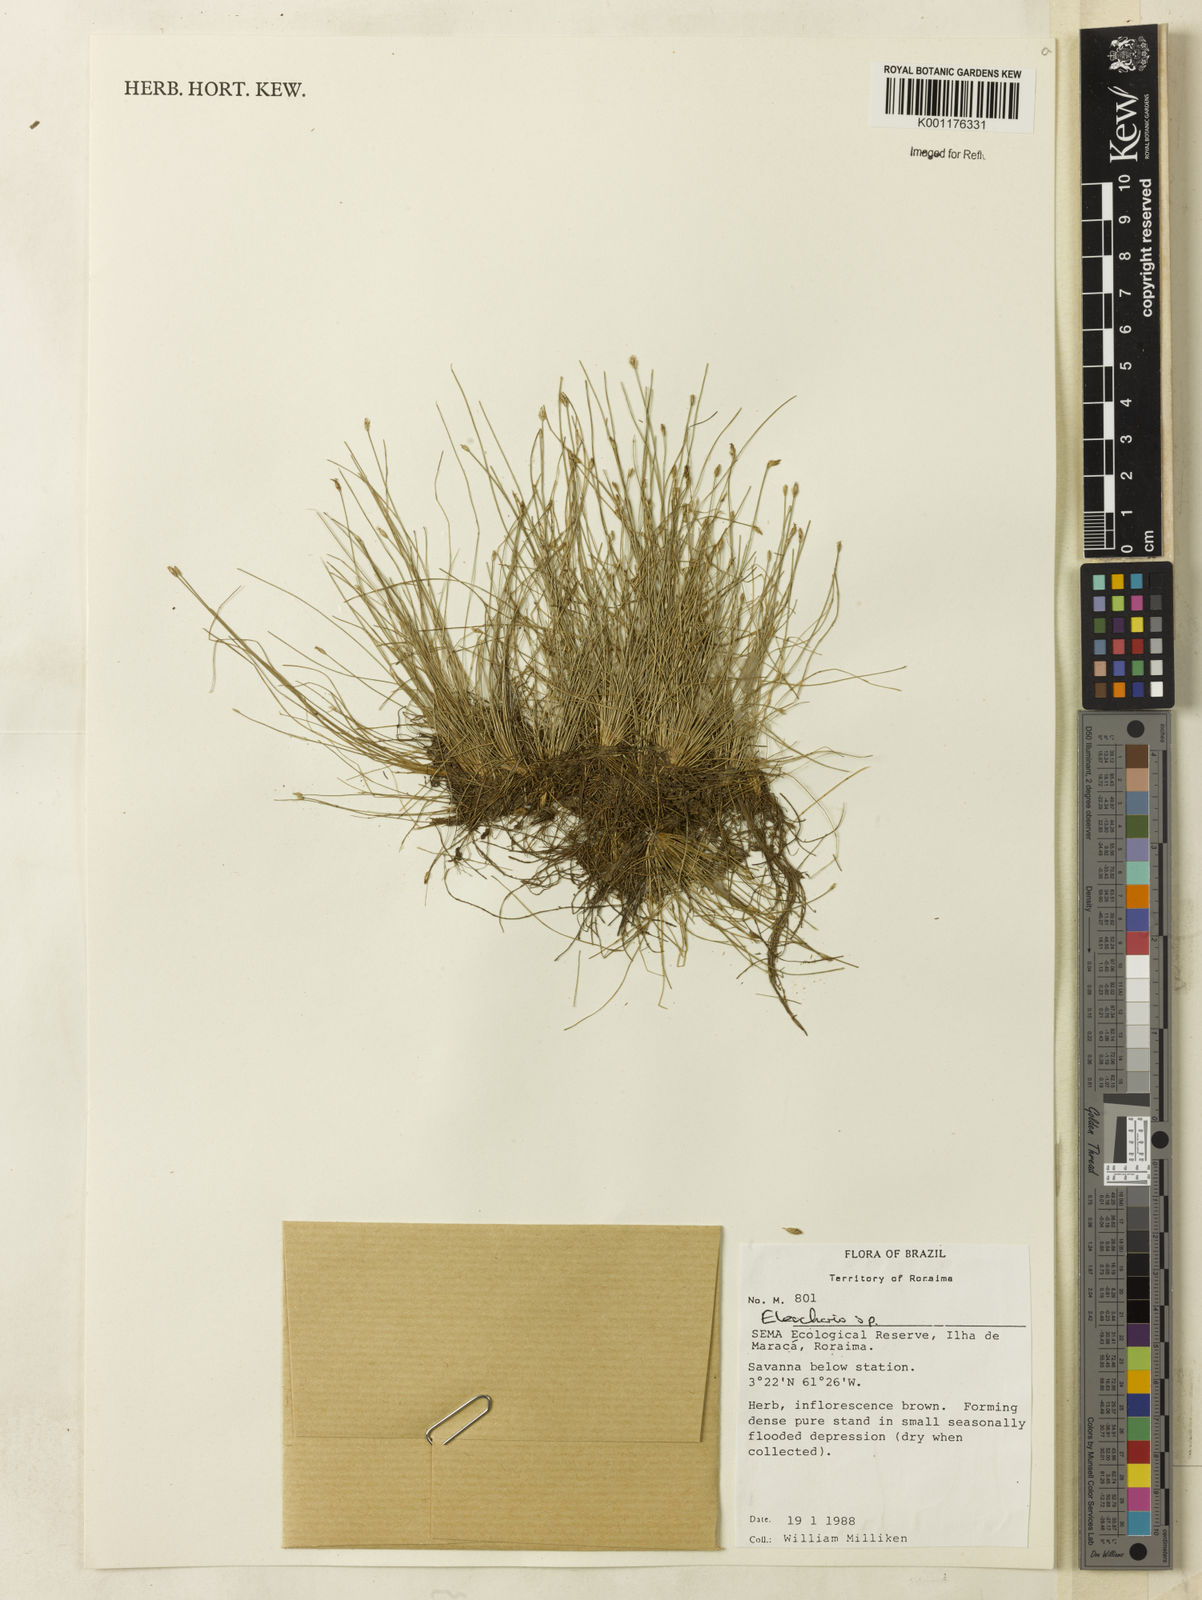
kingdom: Plantae
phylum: Tracheophyta
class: Liliopsida
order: Poales
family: Cyperaceae
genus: Eleocharis
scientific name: Eleocharis
